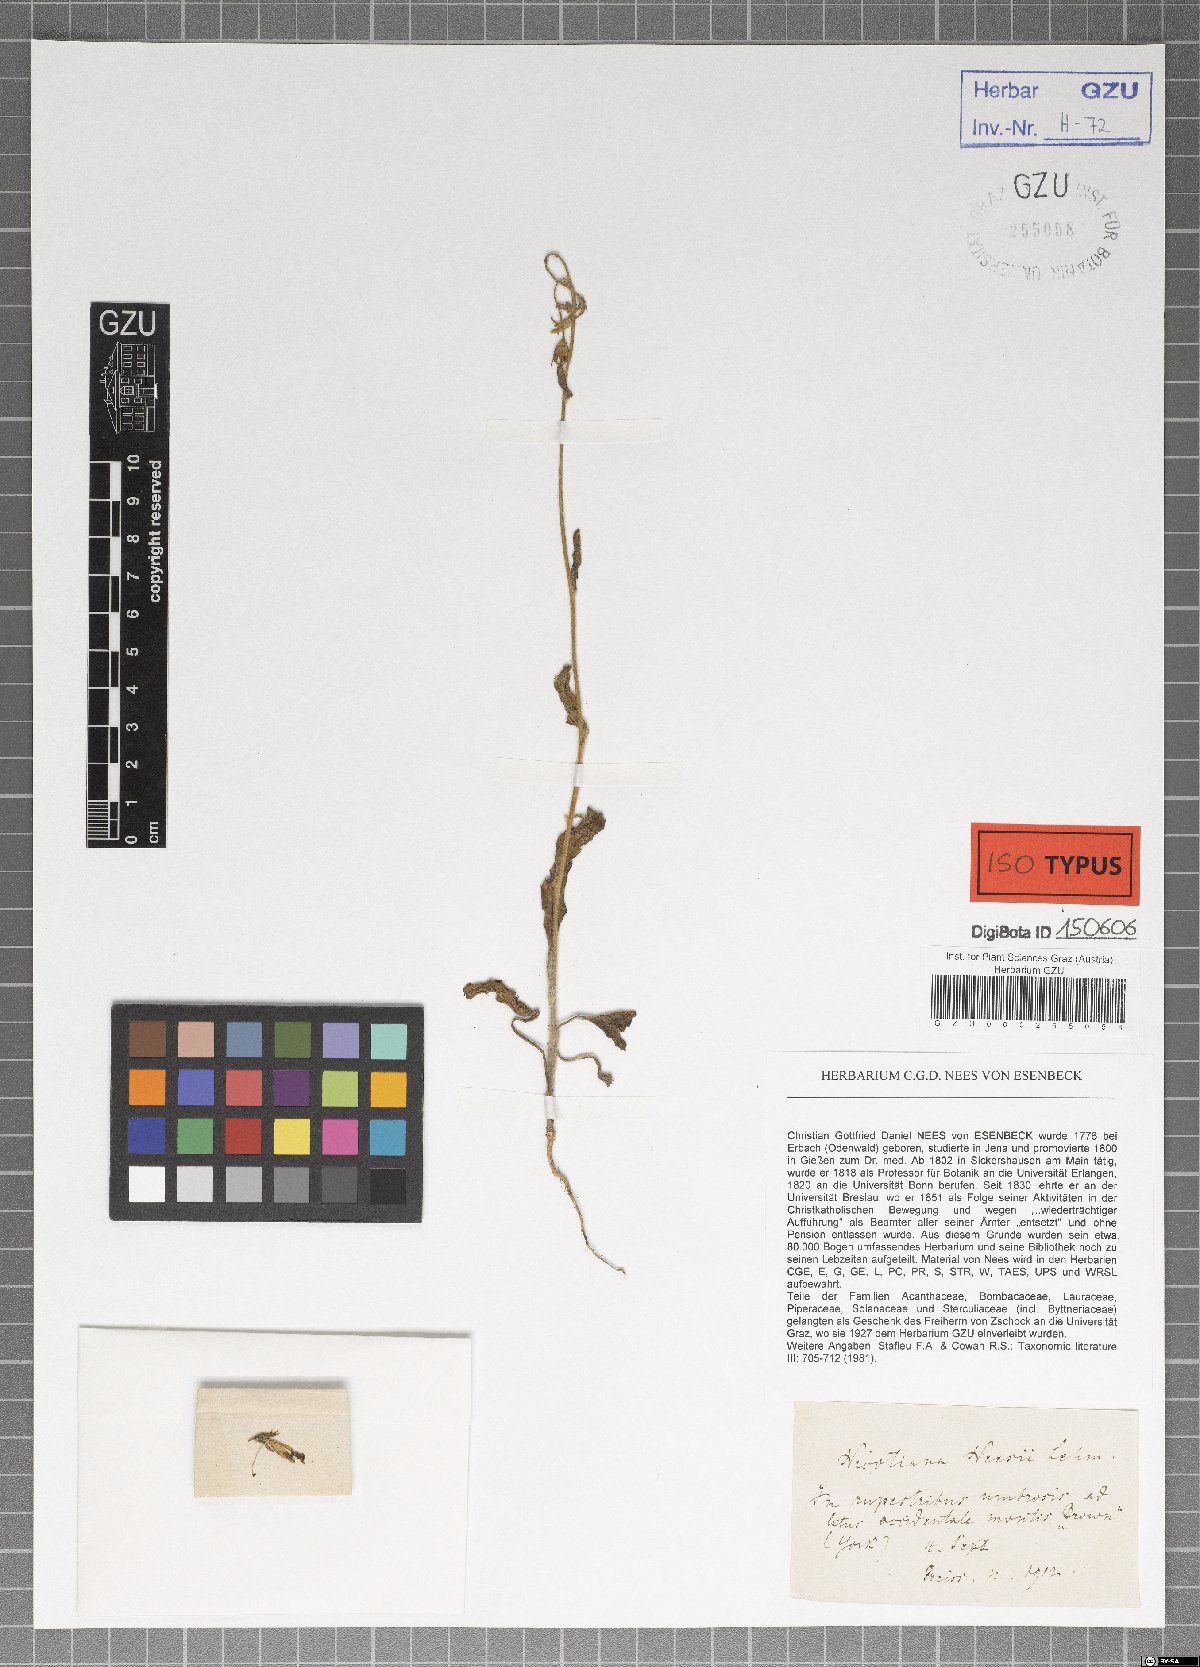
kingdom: Plantae
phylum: Tracheophyta
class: Magnoliopsida
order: Solanales
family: Solanaceae
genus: Nicotiana
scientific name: Nicotiana rotundifolia
